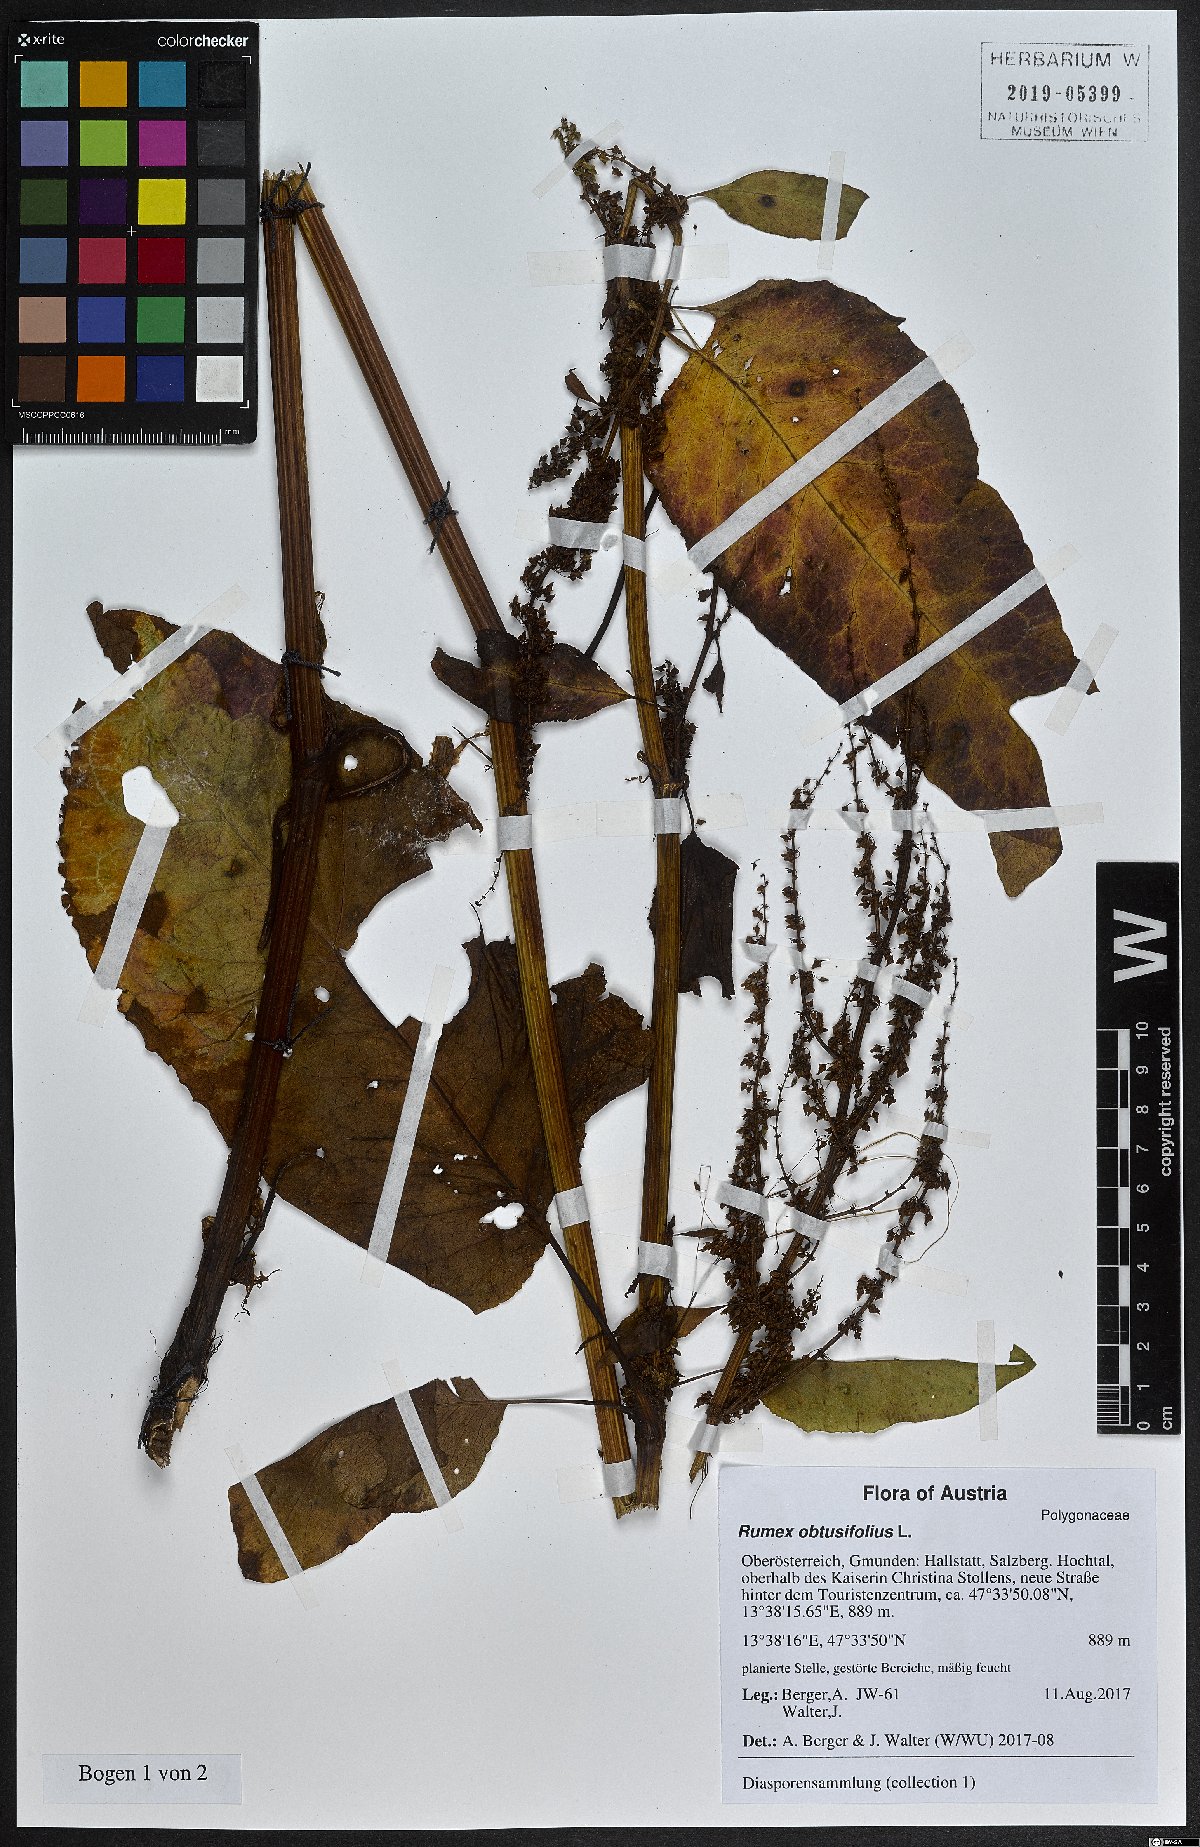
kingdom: Plantae
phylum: Tracheophyta
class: Magnoliopsida
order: Caryophyllales
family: Polygonaceae
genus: Rumex
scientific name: Rumex obtusifolius
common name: Bitter dock
